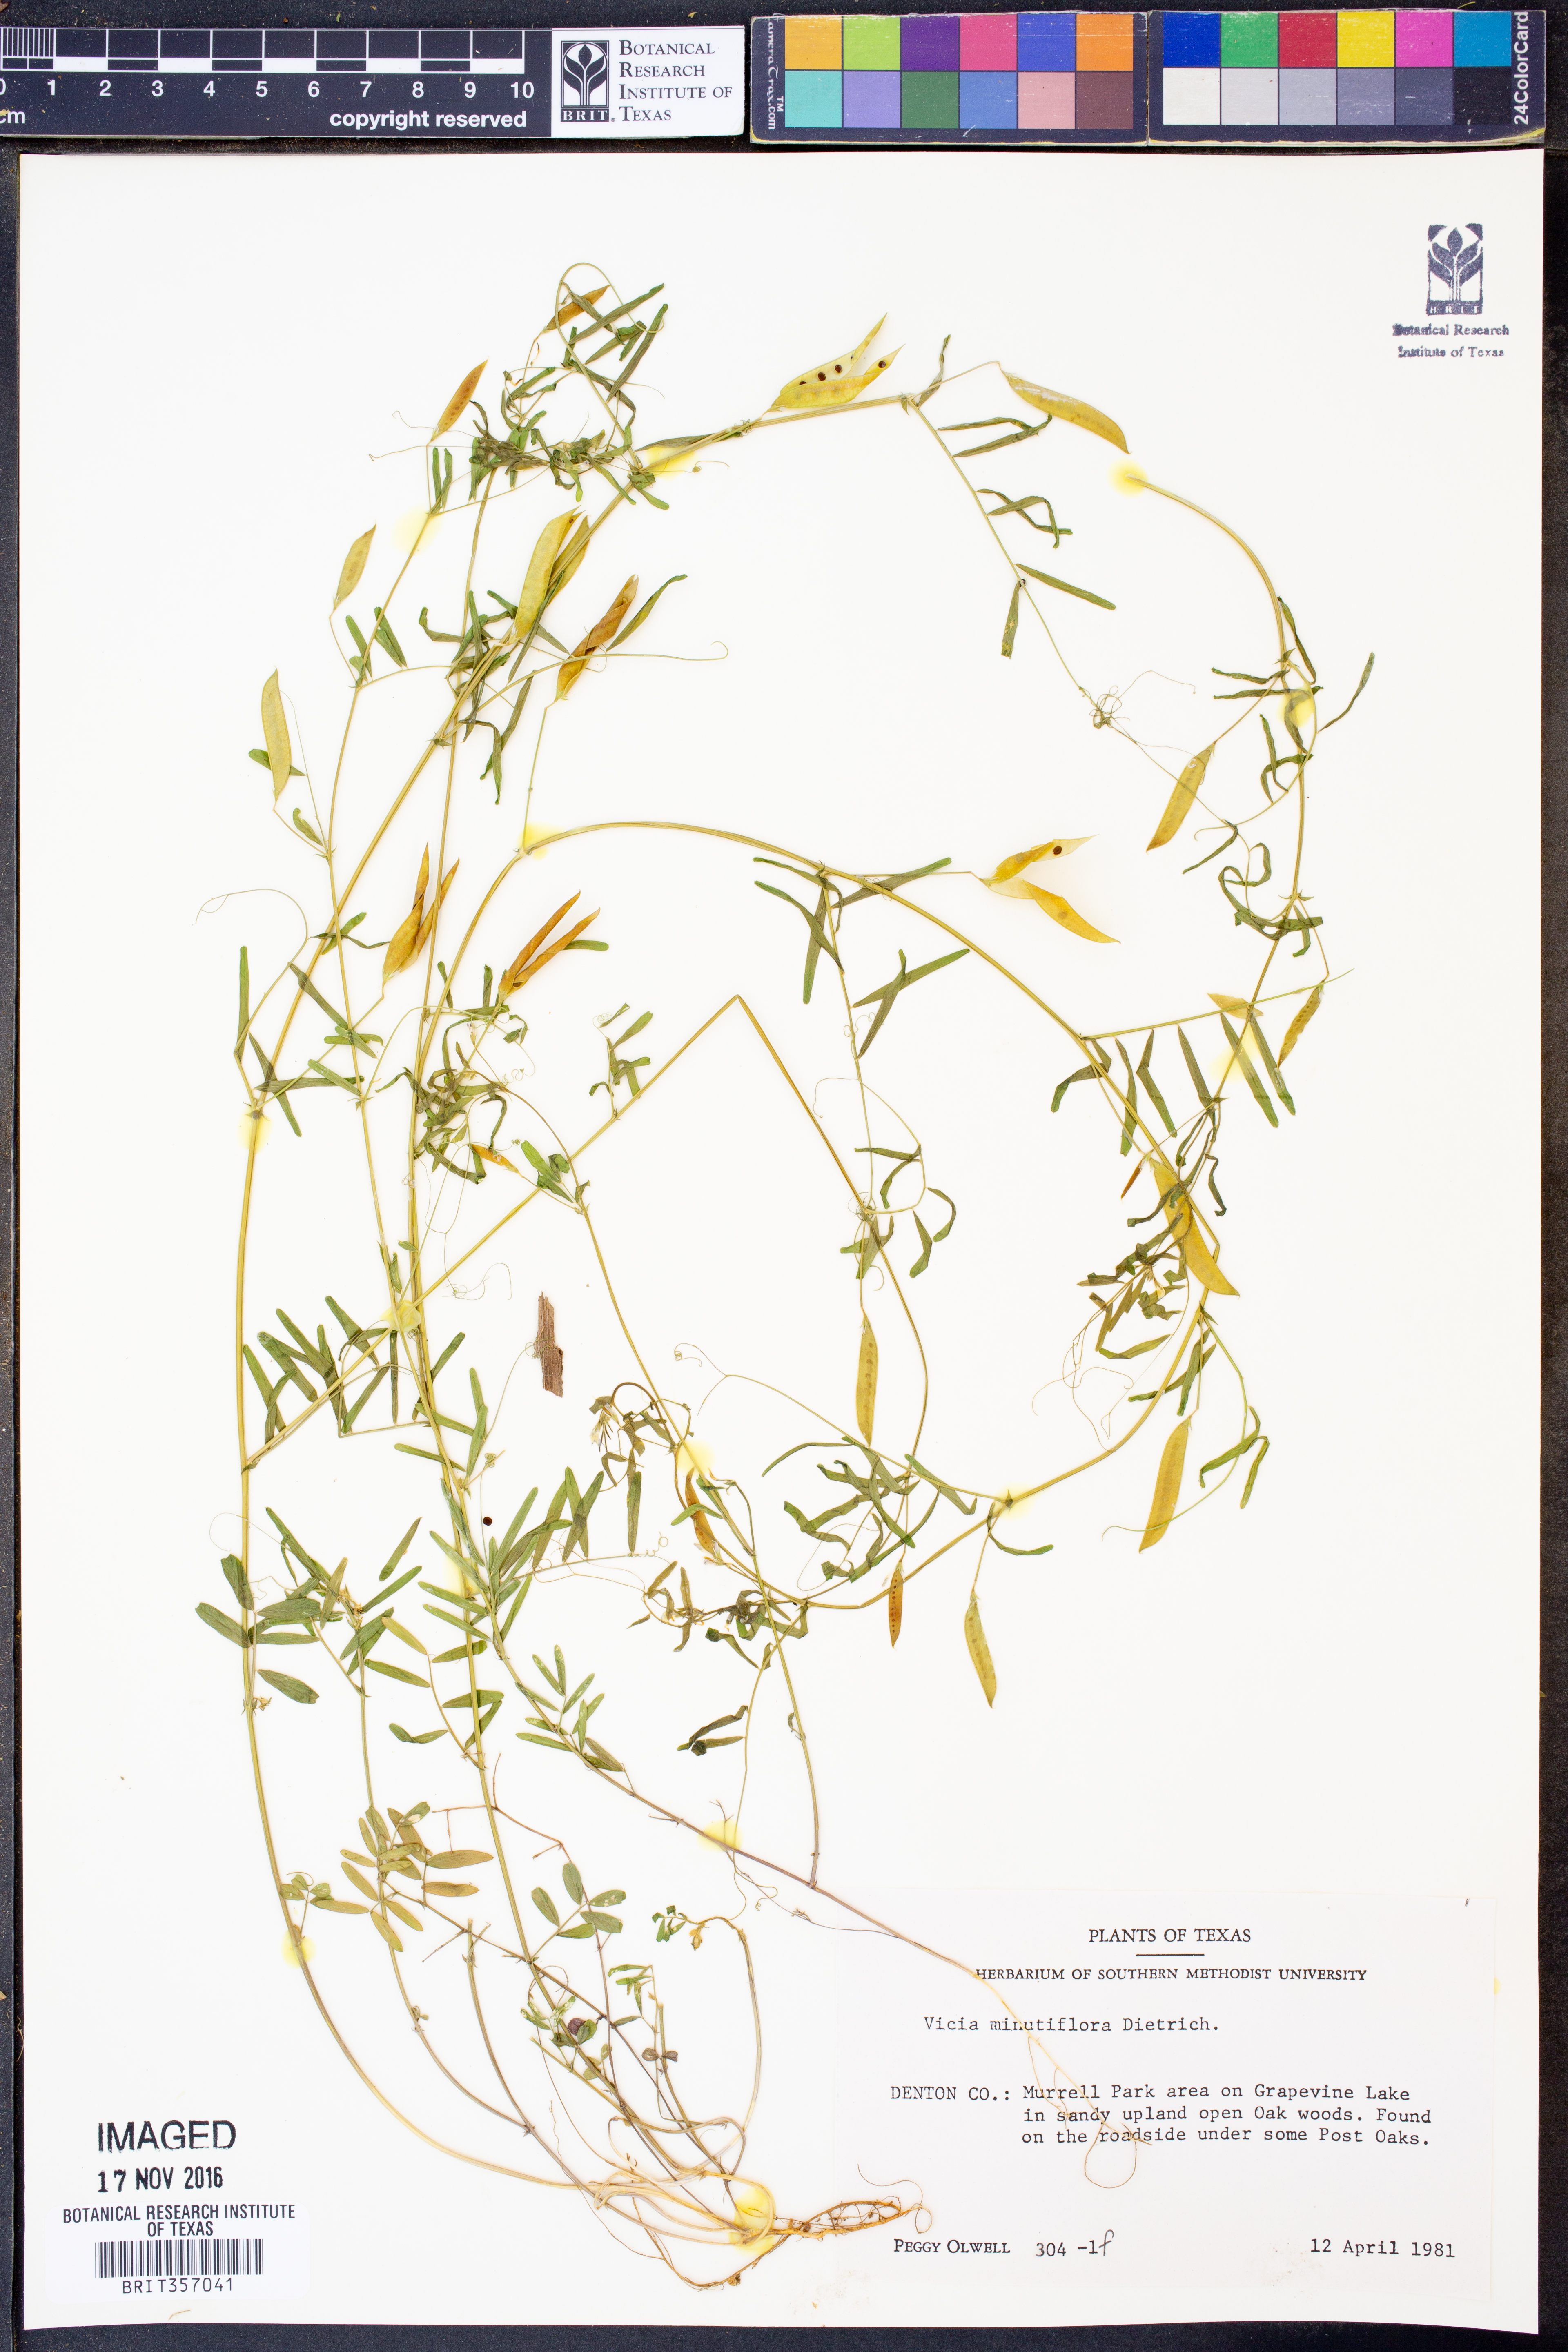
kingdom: Plantae
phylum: Tracheophyta
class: Magnoliopsida
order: Fabales
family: Fabaceae
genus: Vicia
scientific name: Vicia minutiflora
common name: Pygmy-flower vetch
